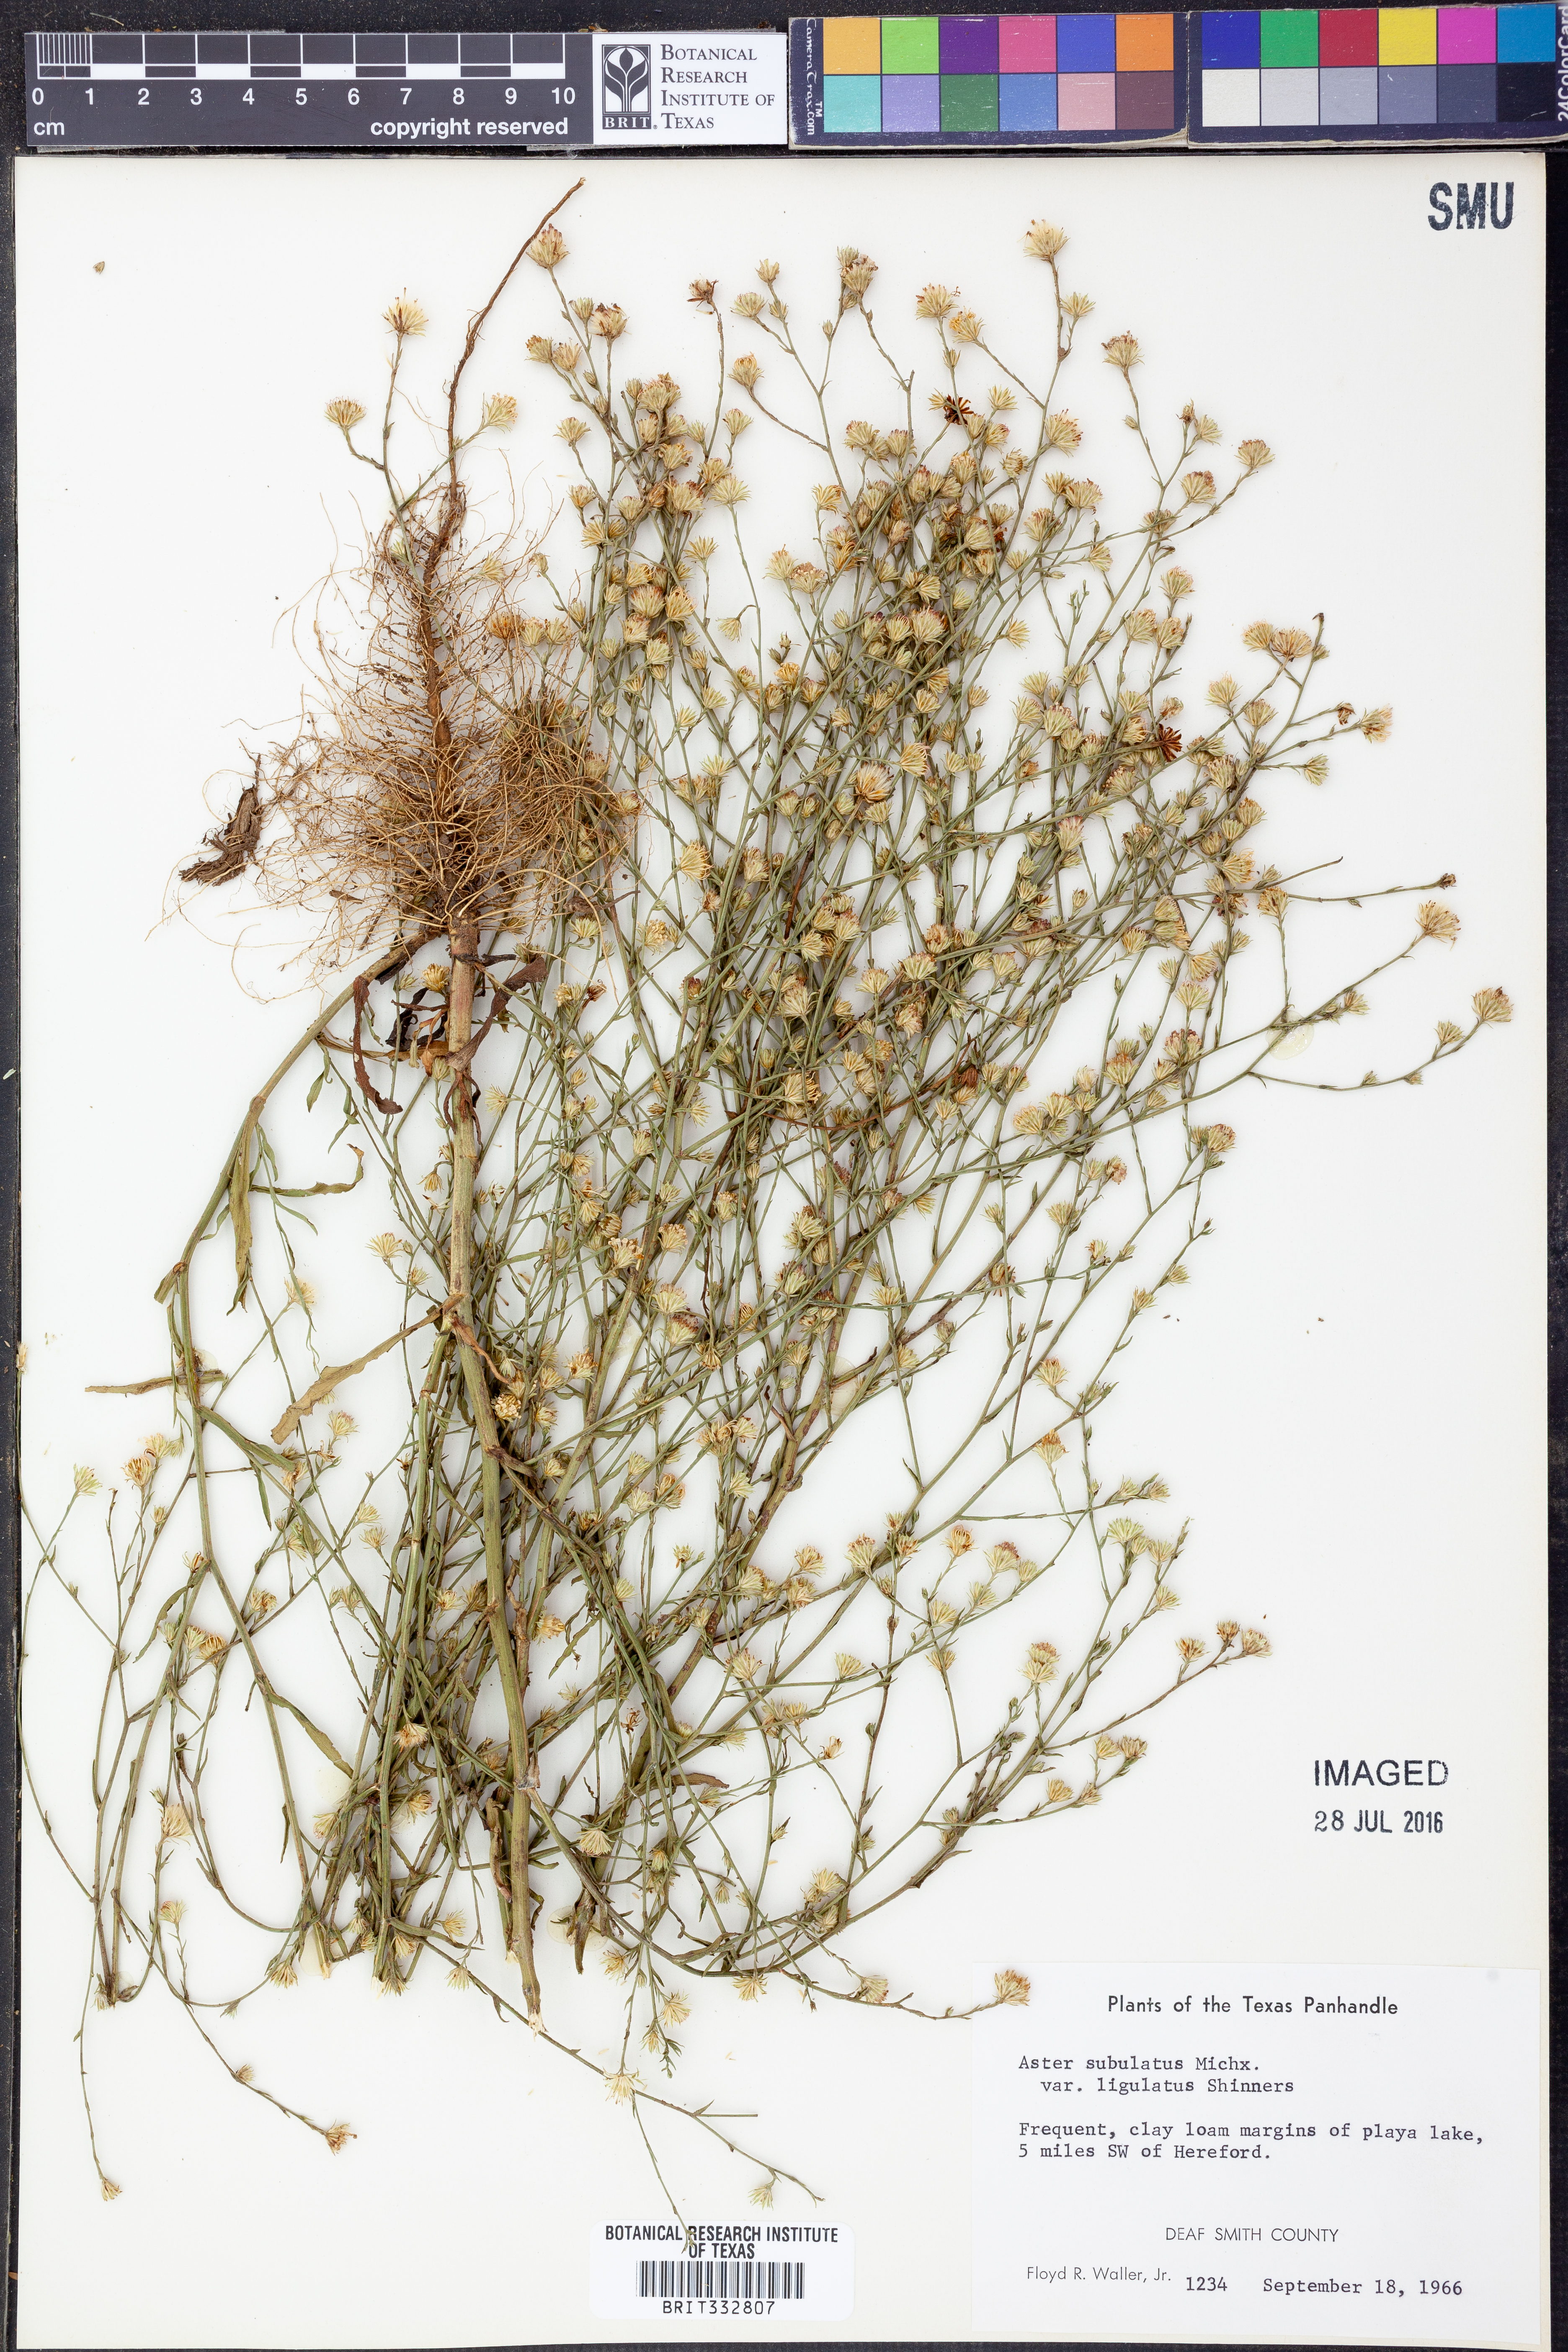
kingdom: Plantae
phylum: Tracheophyta
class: Magnoliopsida
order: Asterales
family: Asteraceae
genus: Symphyotrichum
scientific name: Symphyotrichum divaricatum
